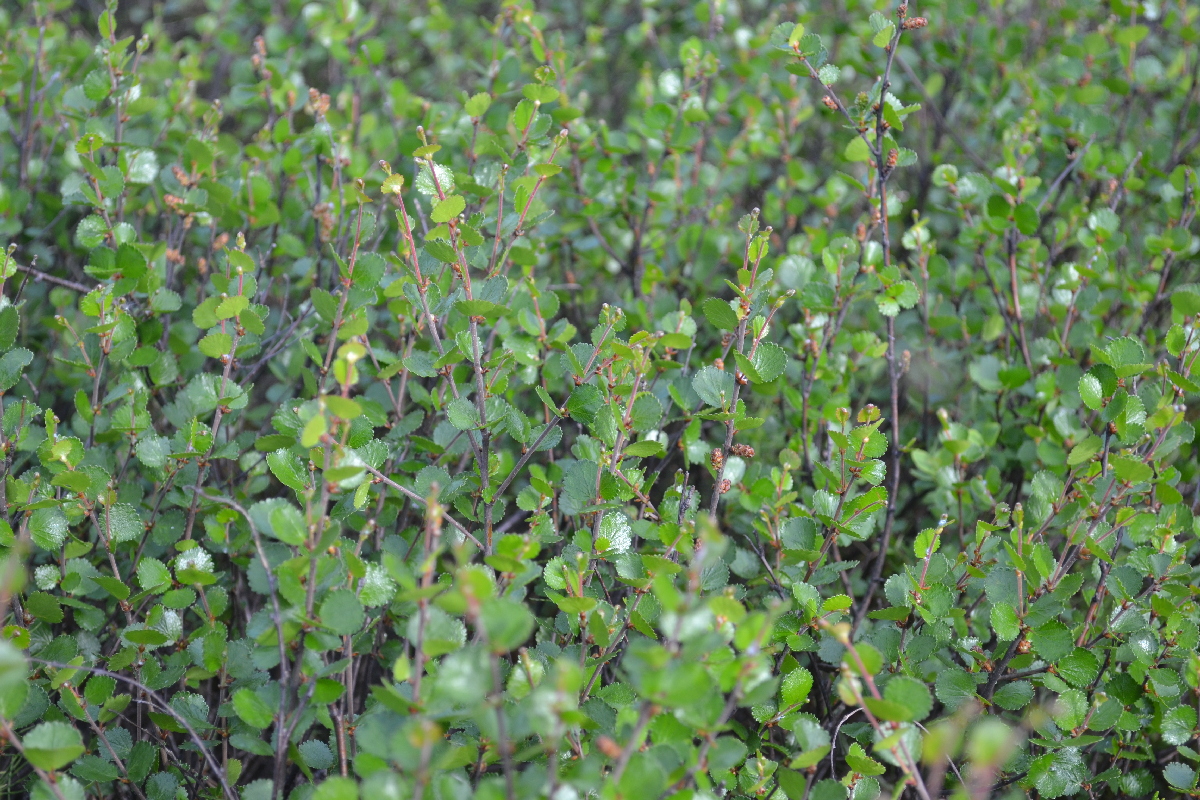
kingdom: Plantae
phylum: Tracheophyta
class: Magnoliopsida
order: Fagales
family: Betulaceae
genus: Betula
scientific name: Betula nana
